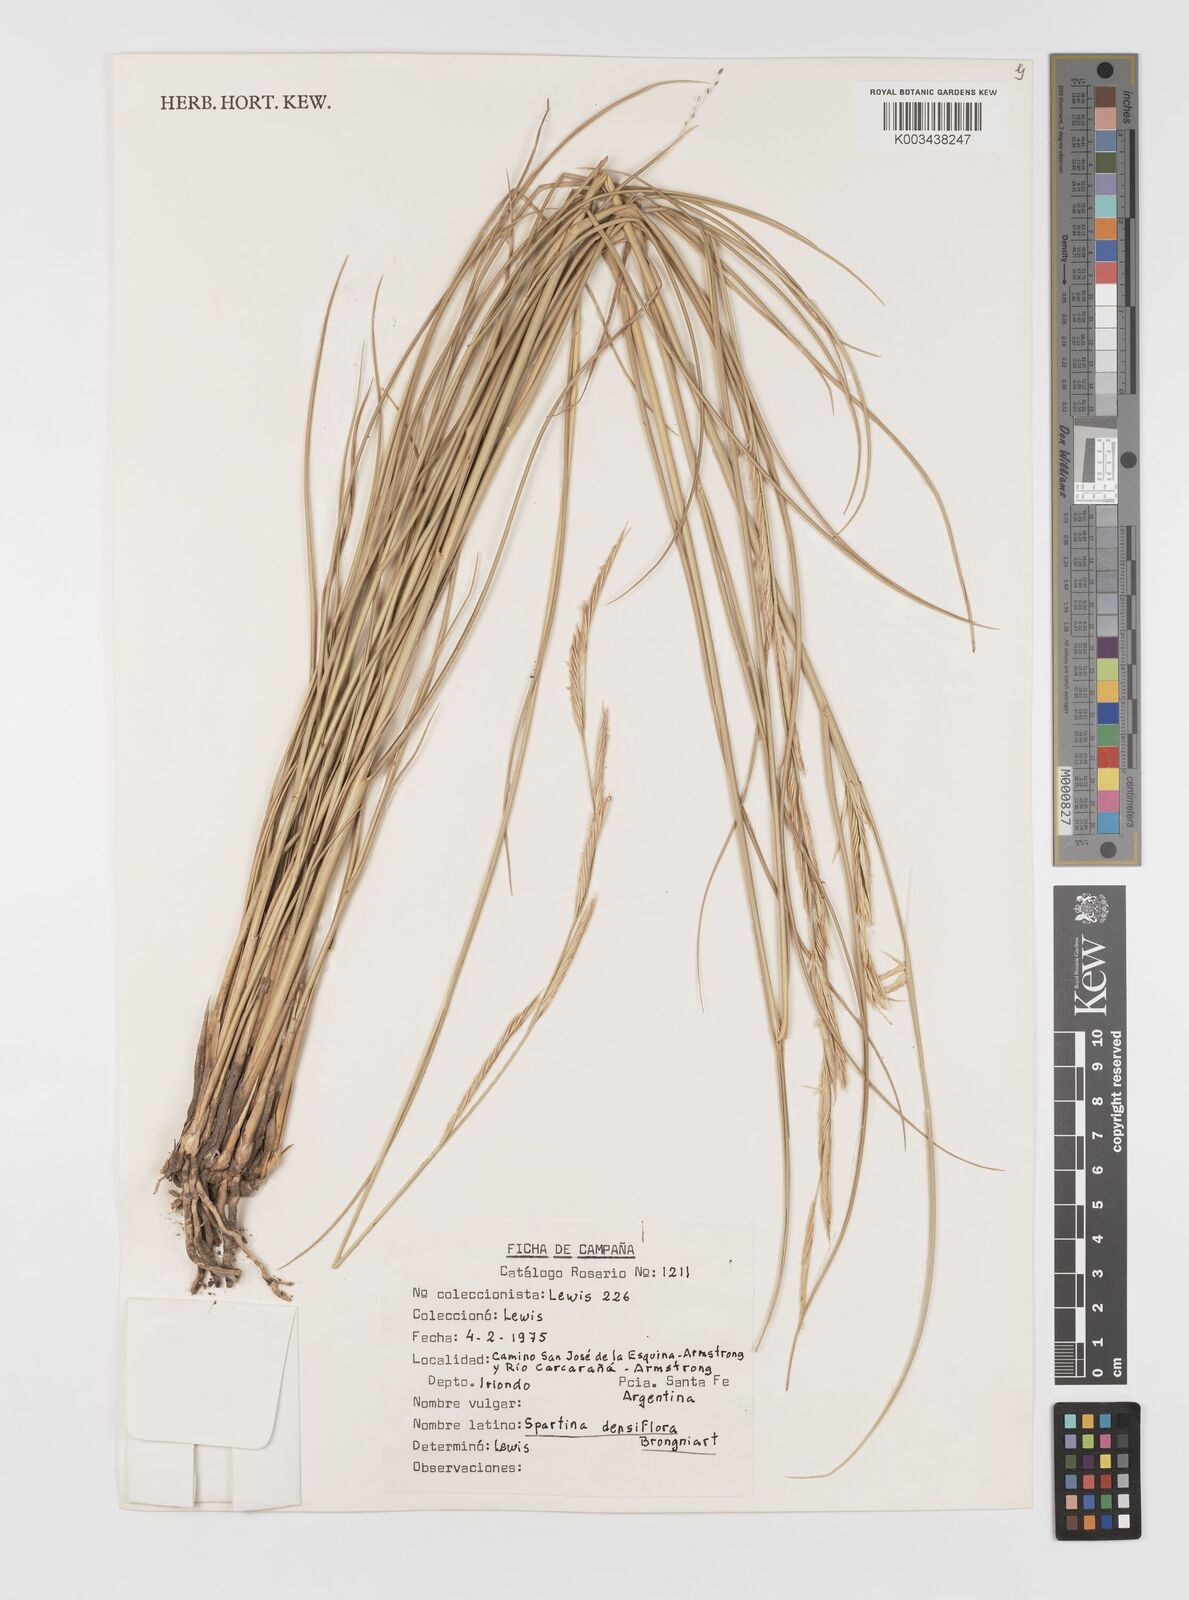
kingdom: Plantae
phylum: Tracheophyta
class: Liliopsida
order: Poales
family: Poaceae
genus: Sporobolus
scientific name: Sporobolus montevidensis
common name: Montevideo dropseed
